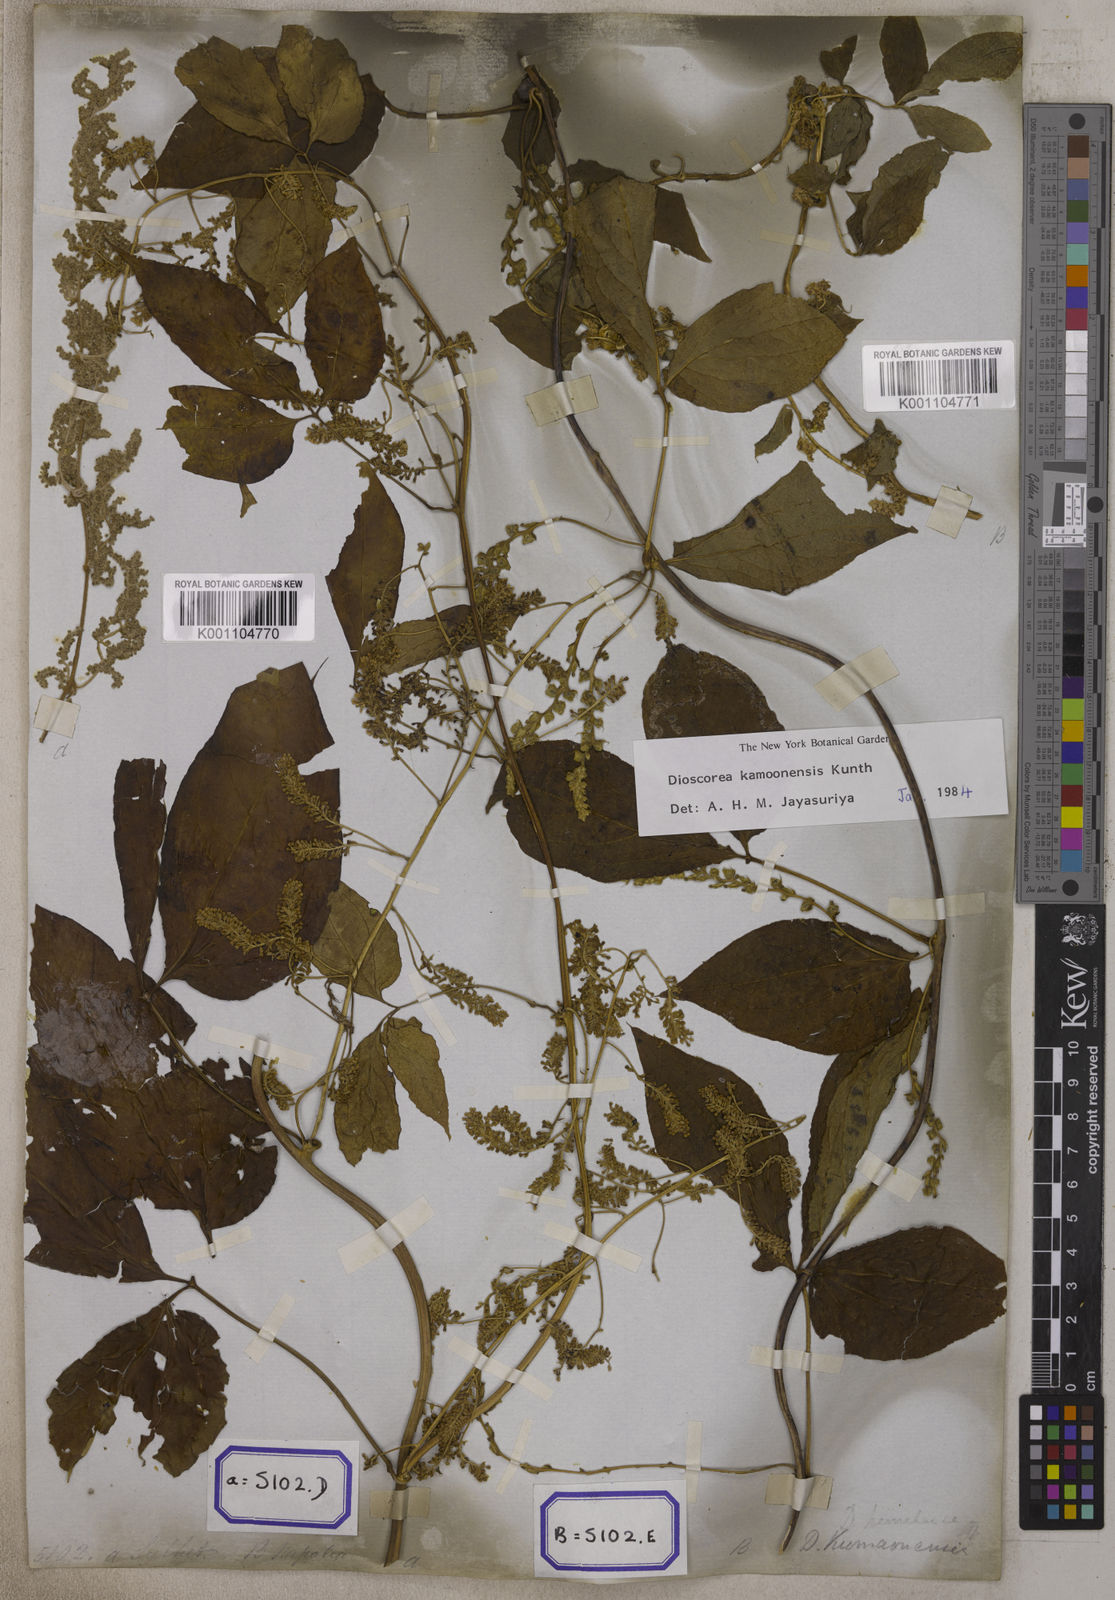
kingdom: Plantae
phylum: Tracheophyta
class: Liliopsida
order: Dioscoreales
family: Dioscoreaceae
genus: Dioscorea
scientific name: Dioscorea pentaphylla
